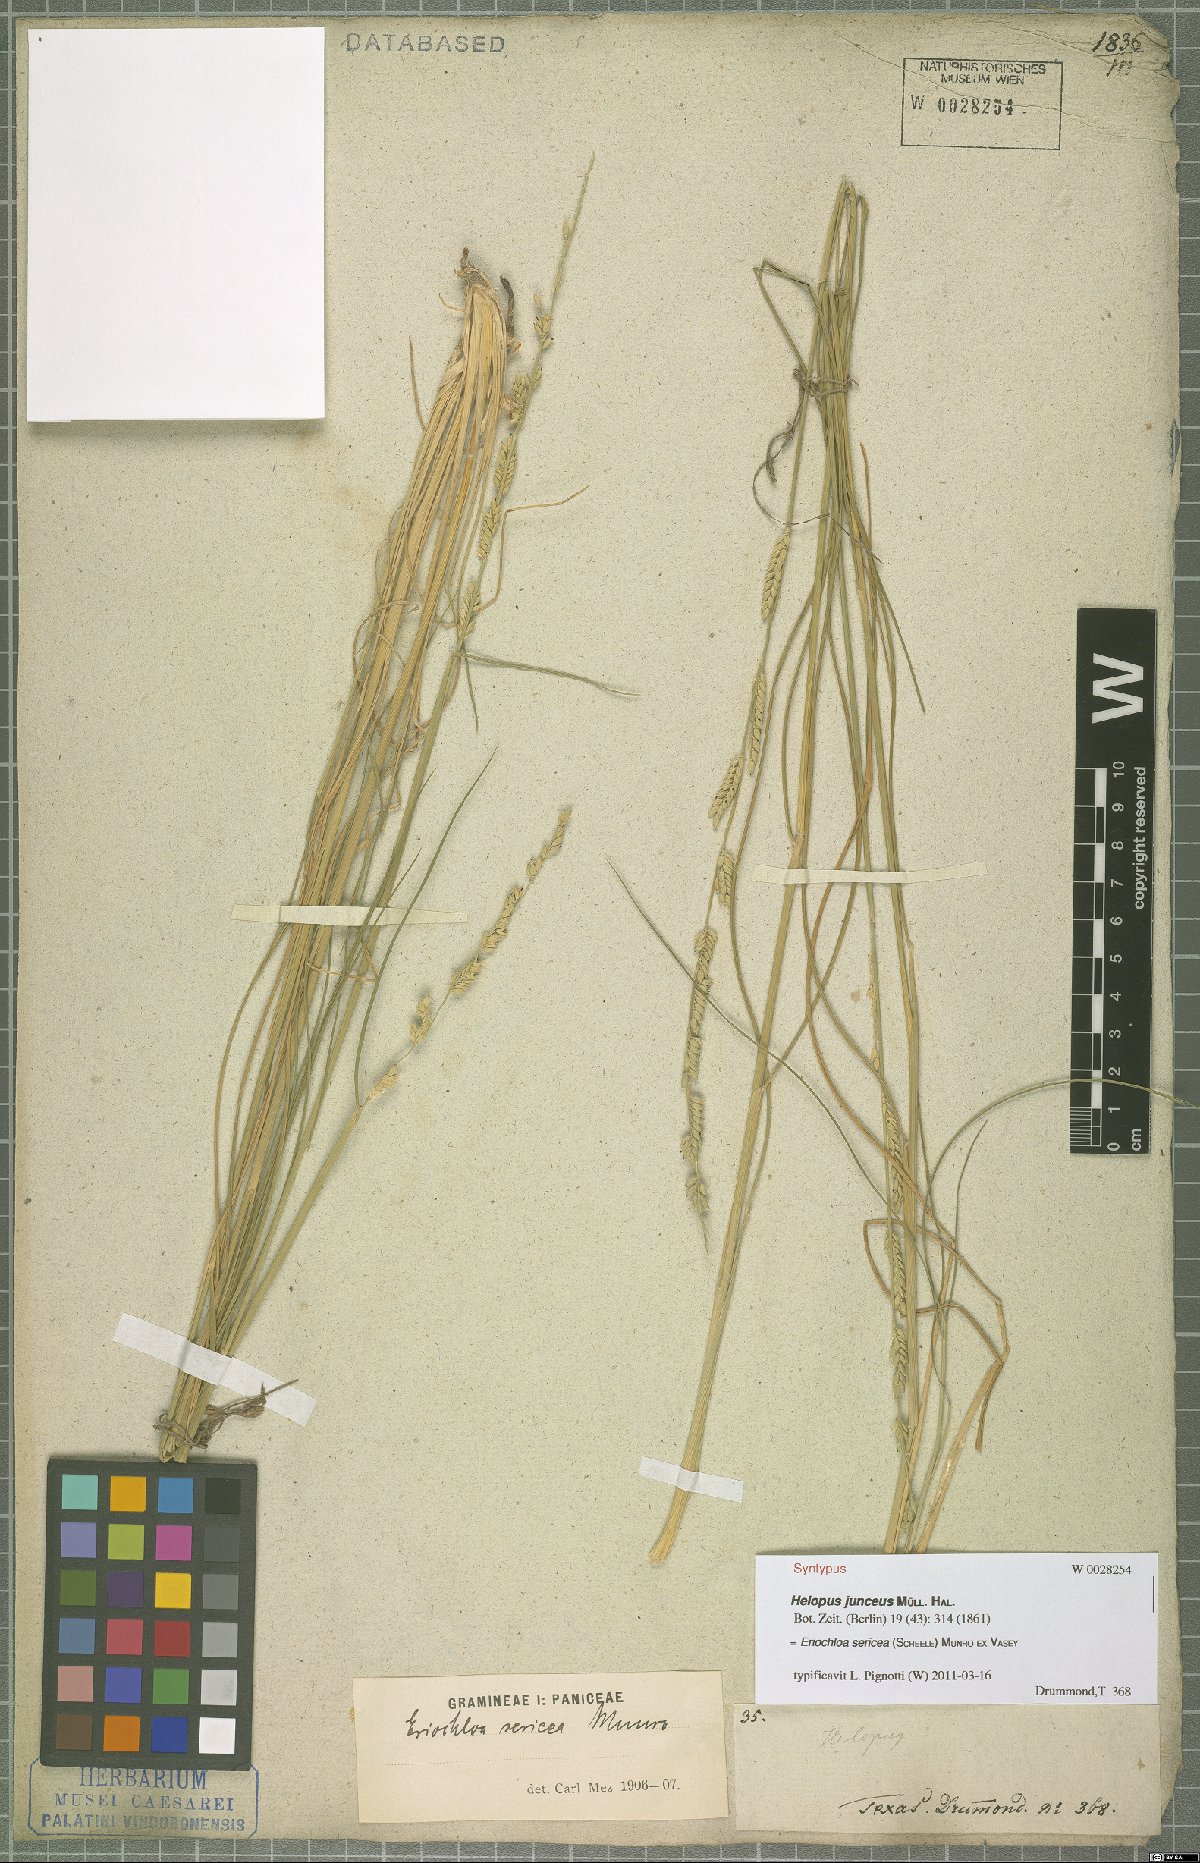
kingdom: Plantae
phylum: Tracheophyta
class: Liliopsida
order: Poales
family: Poaceae
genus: Eriochloa
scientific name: Eriochloa sericea
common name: Texas cup grass
